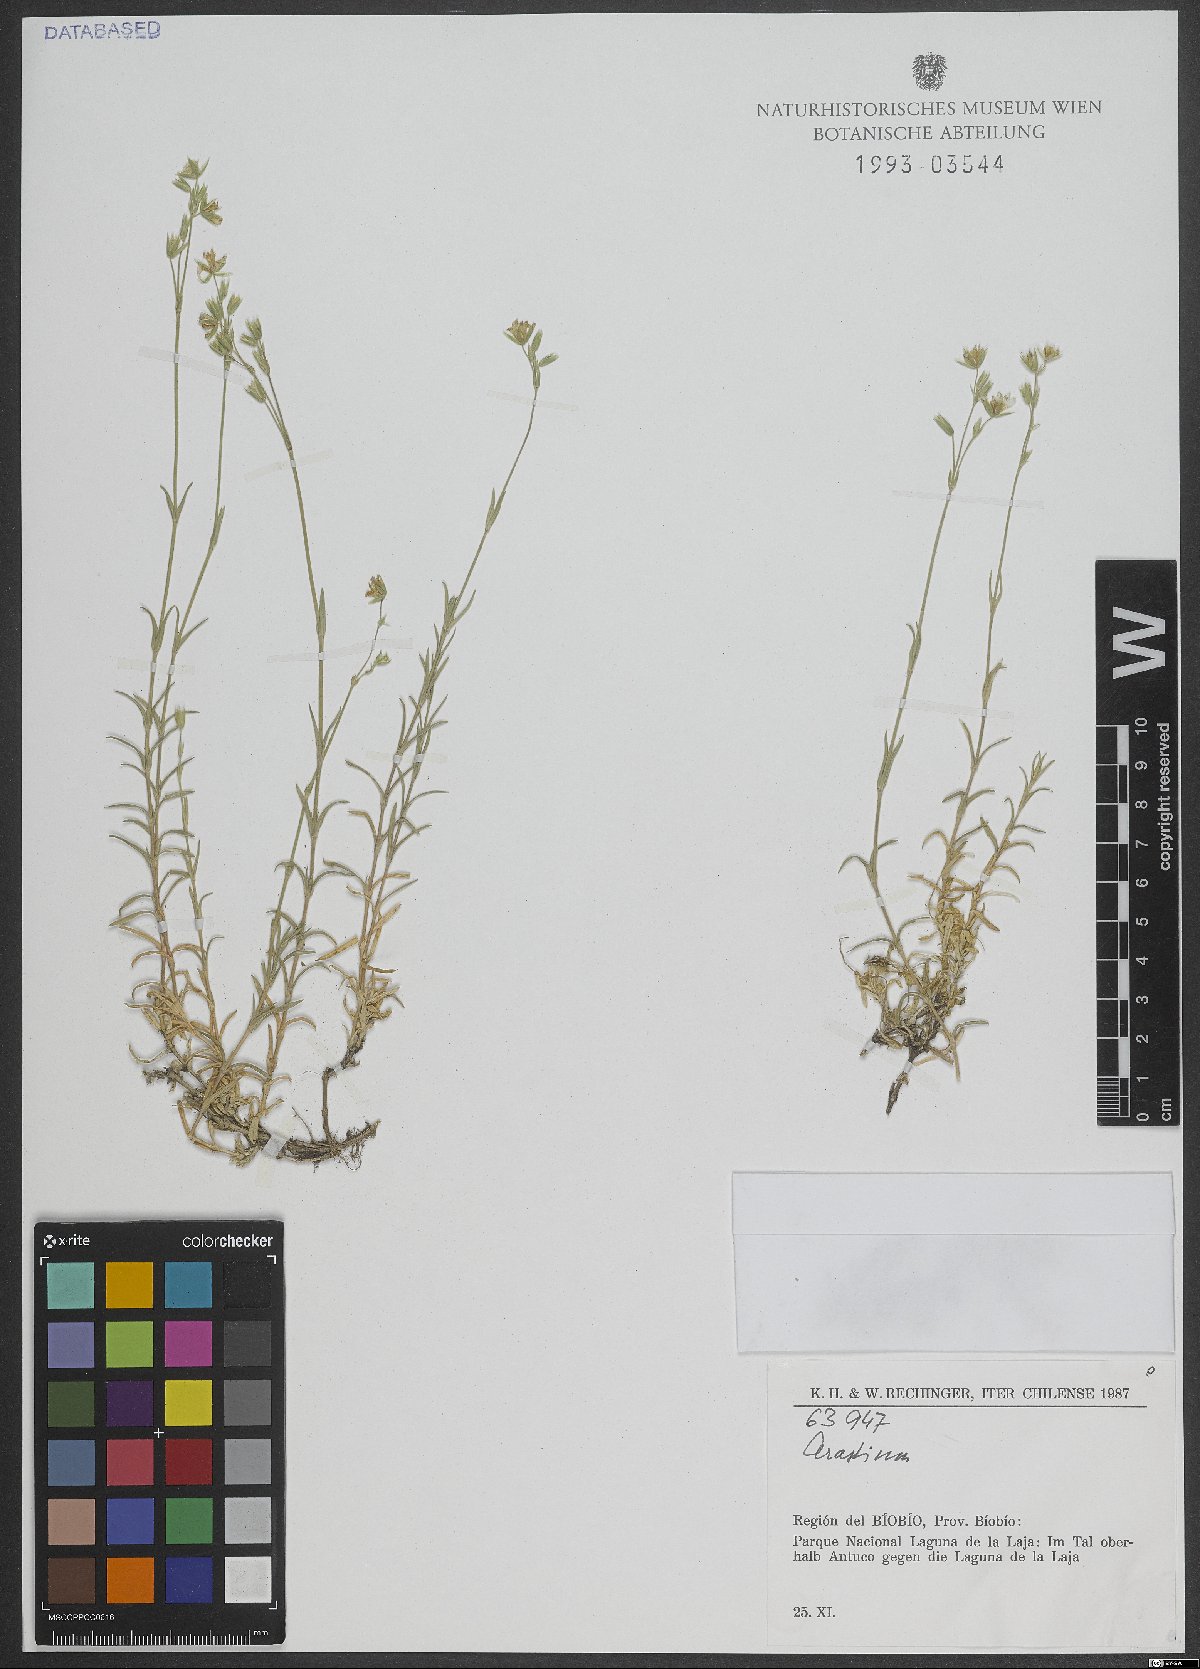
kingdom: Plantae
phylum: Tracheophyta
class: Magnoliopsida
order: Caryophyllales
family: Caryophyllaceae
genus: Cerastium
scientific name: Cerastium
